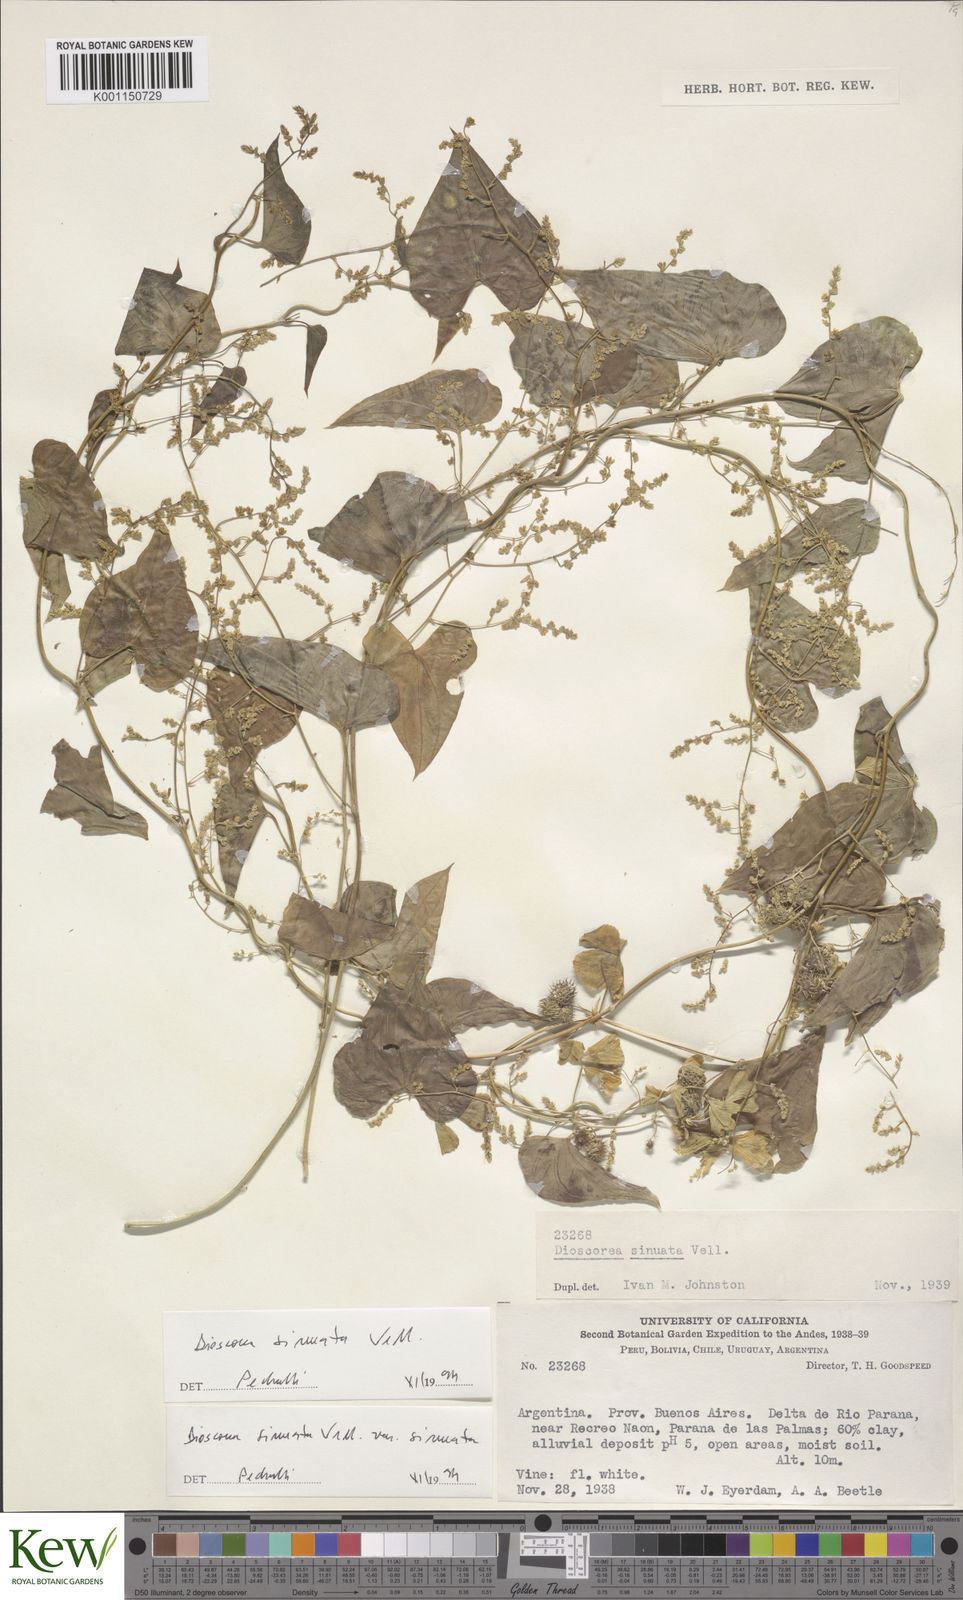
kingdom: Plantae
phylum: Tracheophyta
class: Liliopsida
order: Dioscoreales
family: Dioscoreaceae
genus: Dioscorea
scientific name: Dioscorea sinuata
